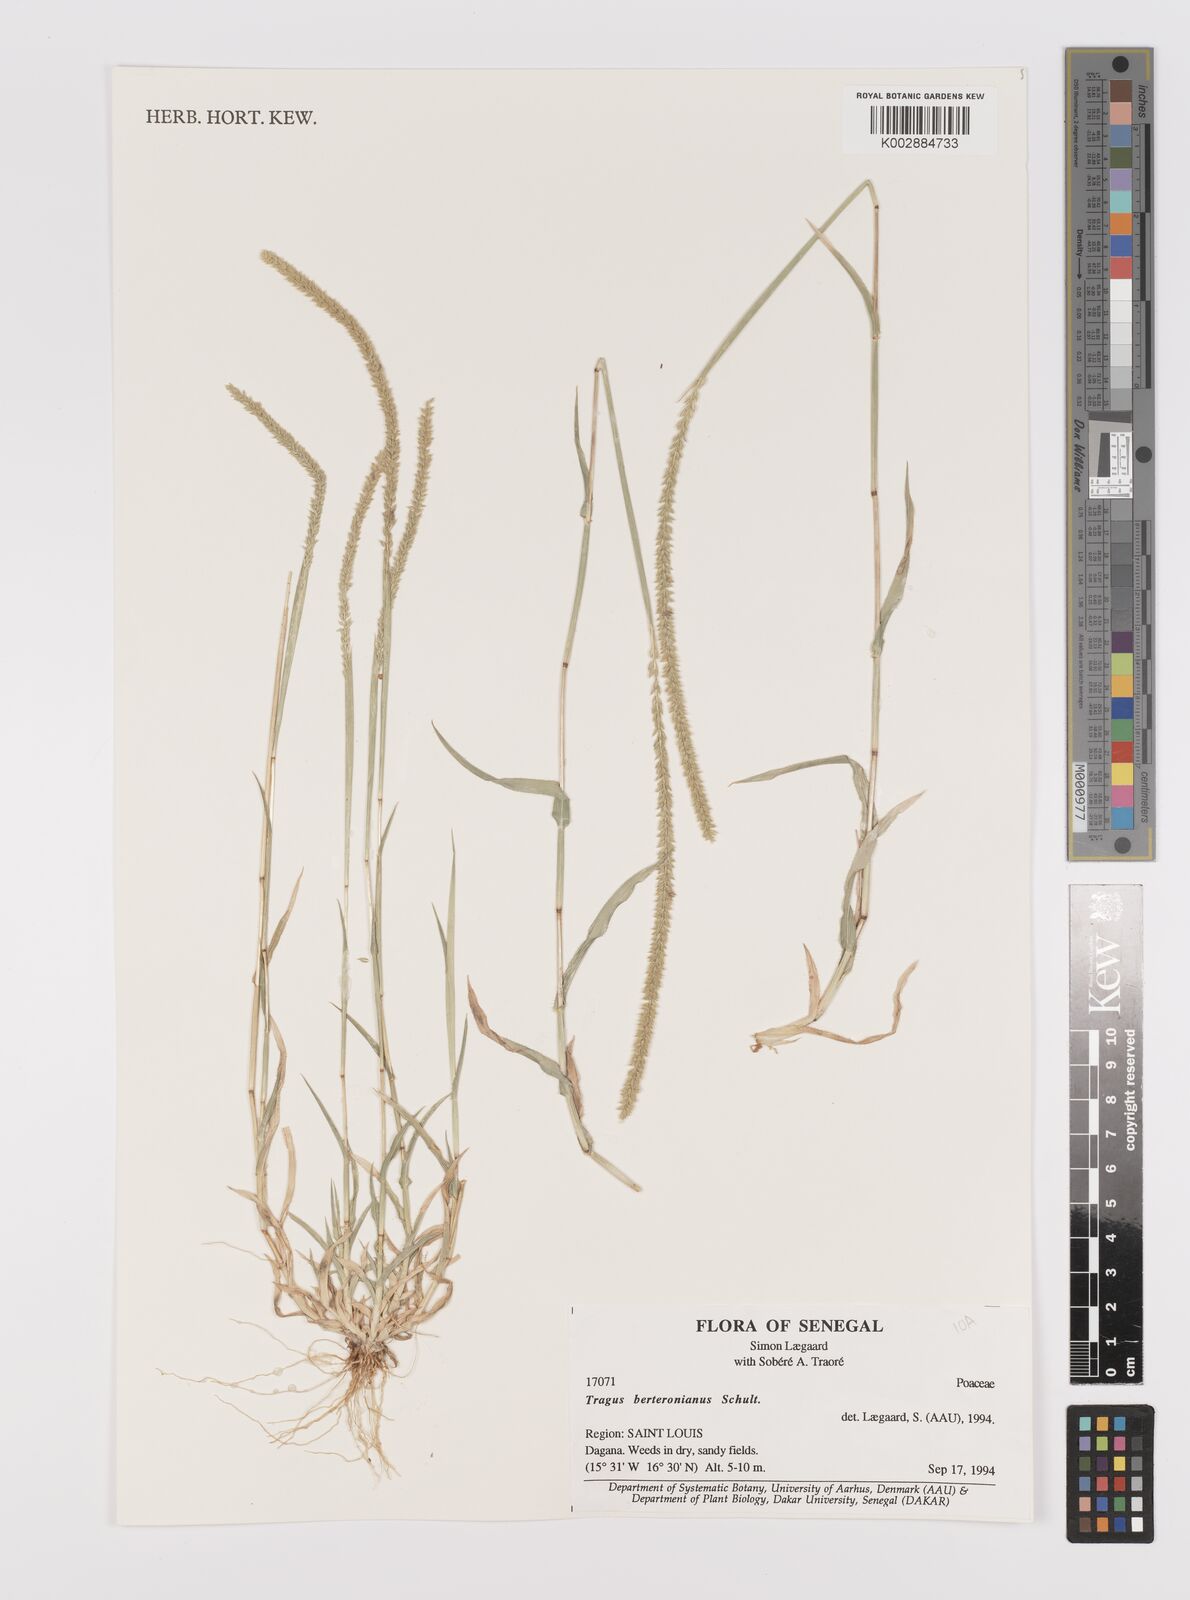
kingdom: Plantae
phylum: Tracheophyta
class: Liliopsida
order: Poales
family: Poaceae
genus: Tragus
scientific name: Tragus berteronianus
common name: African bur-grass
